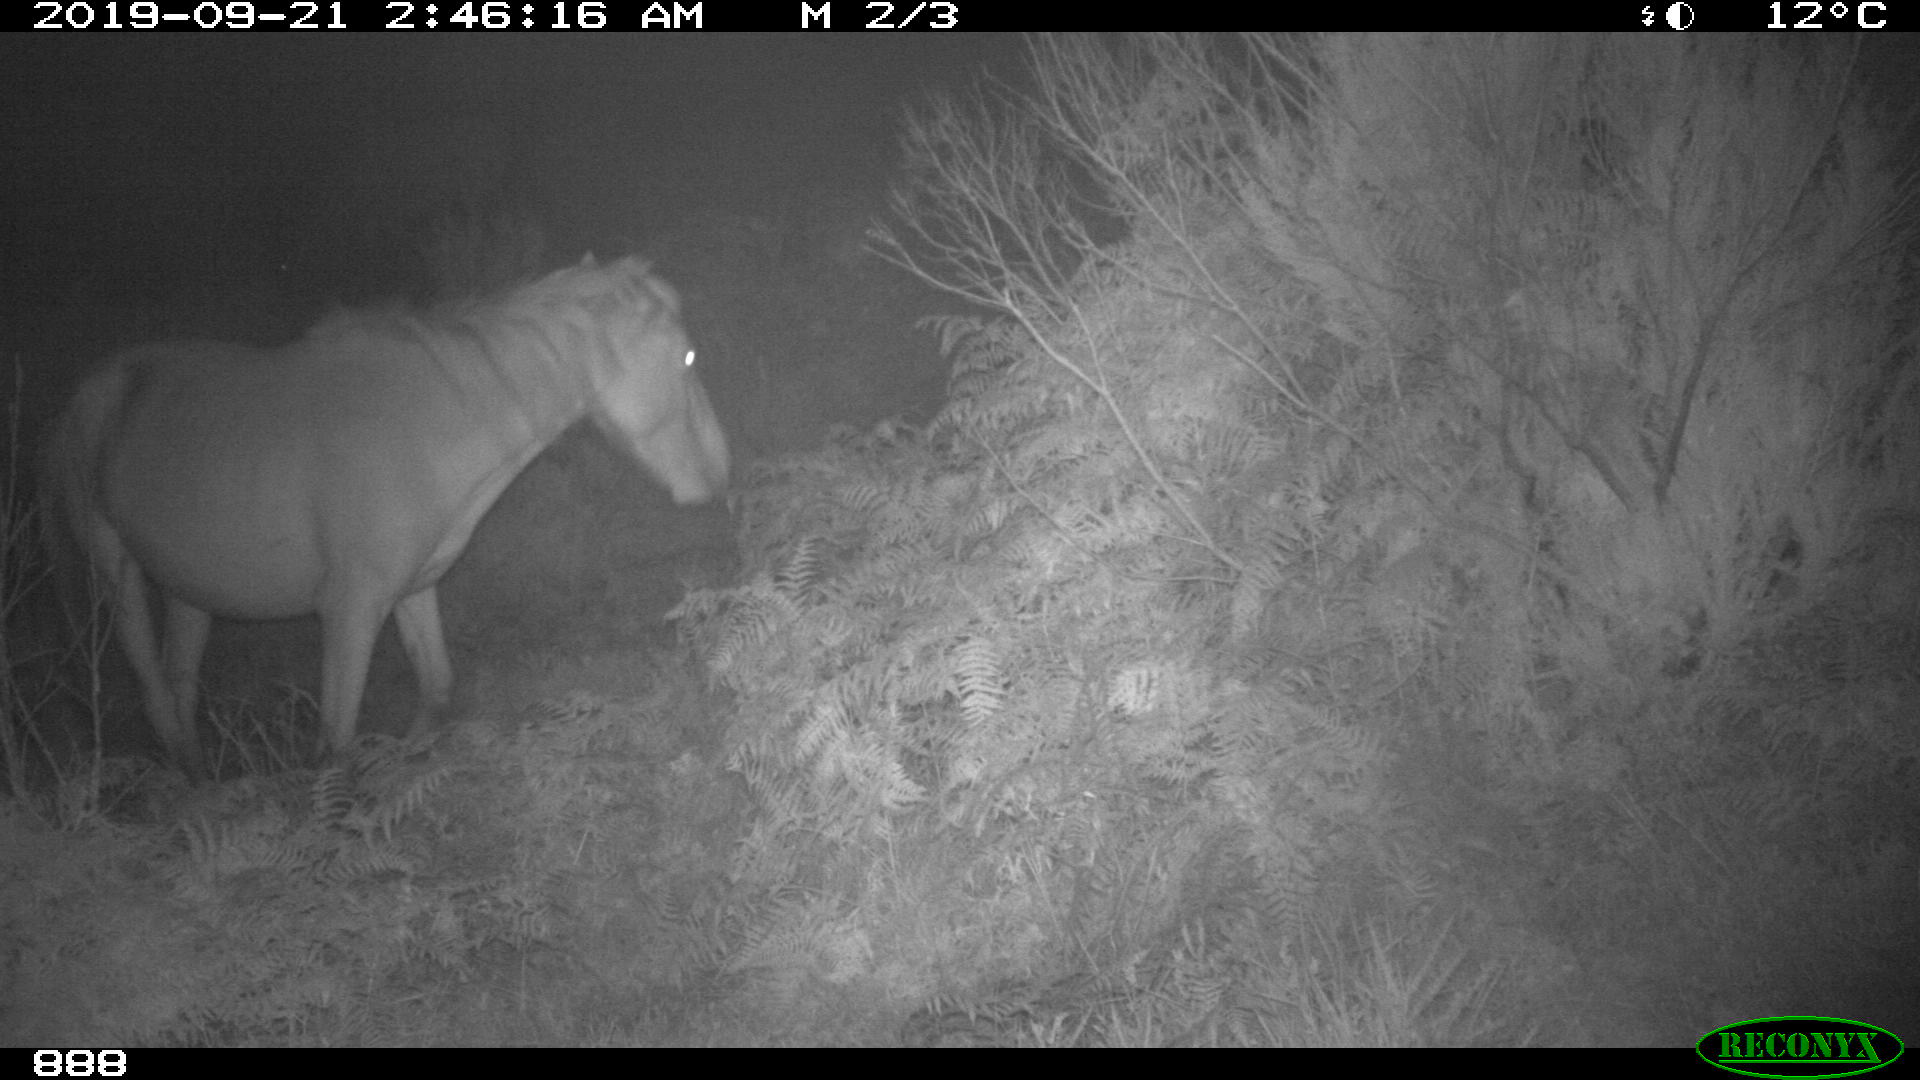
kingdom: Animalia
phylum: Chordata
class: Mammalia
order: Perissodactyla
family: Equidae
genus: Equus
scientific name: Equus caballus
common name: Horse
